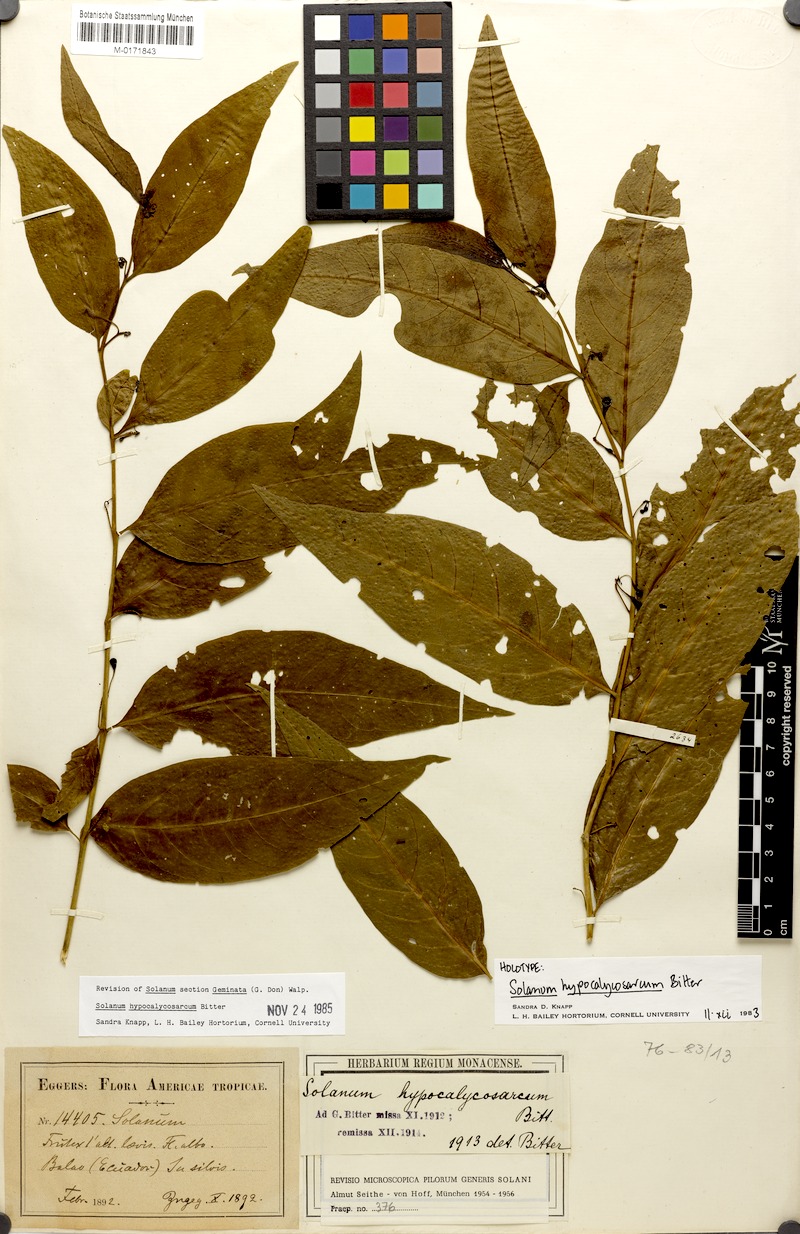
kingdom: Plantae
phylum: Tracheophyta
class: Magnoliopsida
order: Solanales
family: Solanaceae
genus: Solanum
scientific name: Solanum hypocalycosarcum
